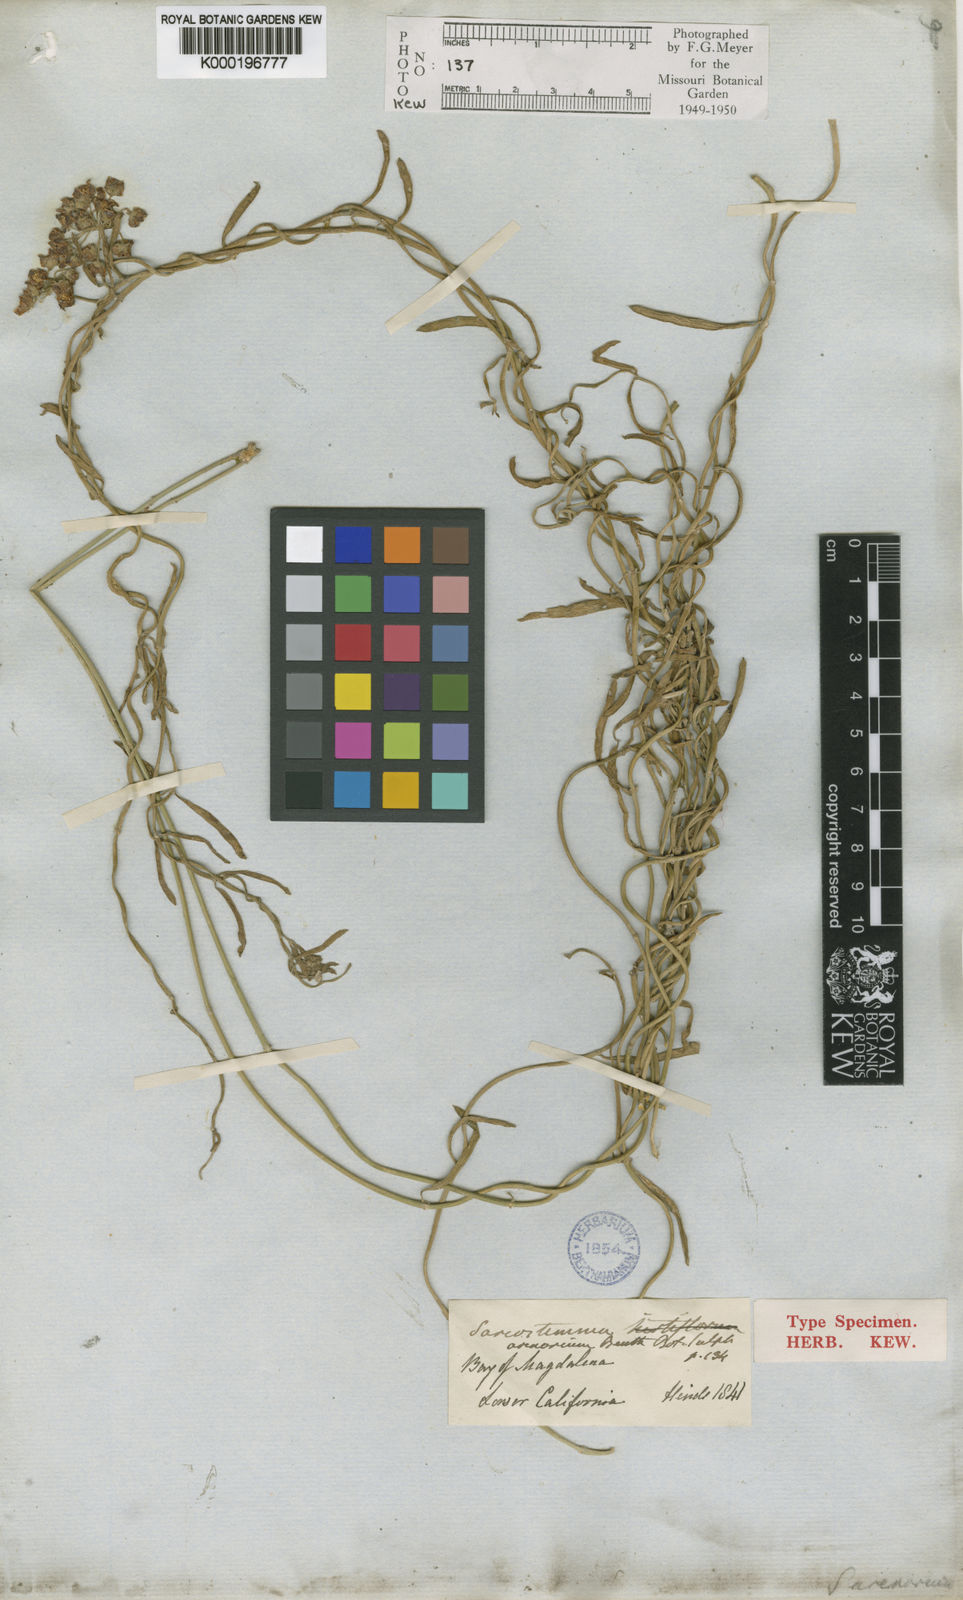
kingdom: Plantae
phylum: Tracheophyta
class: Magnoliopsida
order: Gentianales
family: Apocynaceae
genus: Funastrum
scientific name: Funastrum arenarium
